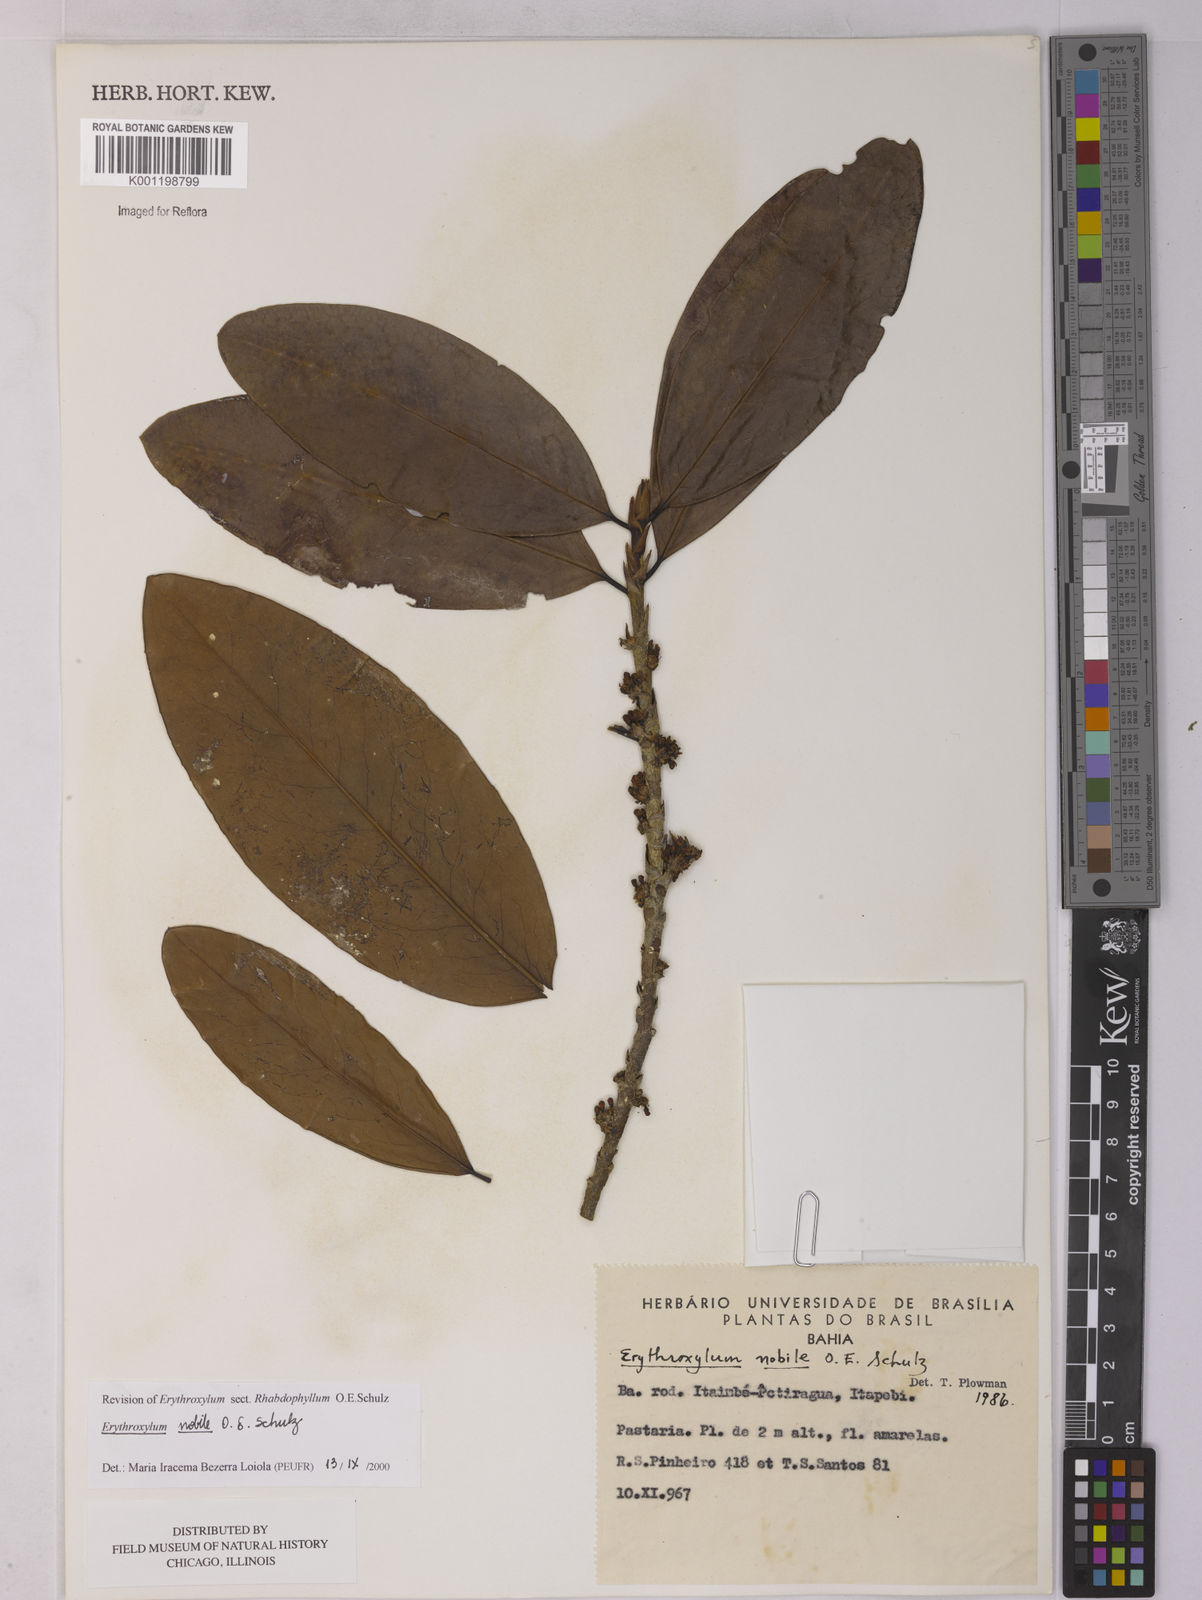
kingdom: Plantae
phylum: Tracheophyta
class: Magnoliopsida
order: Malpighiales
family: Erythroxylaceae
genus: Erythroxylum
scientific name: Erythroxylum nobile
